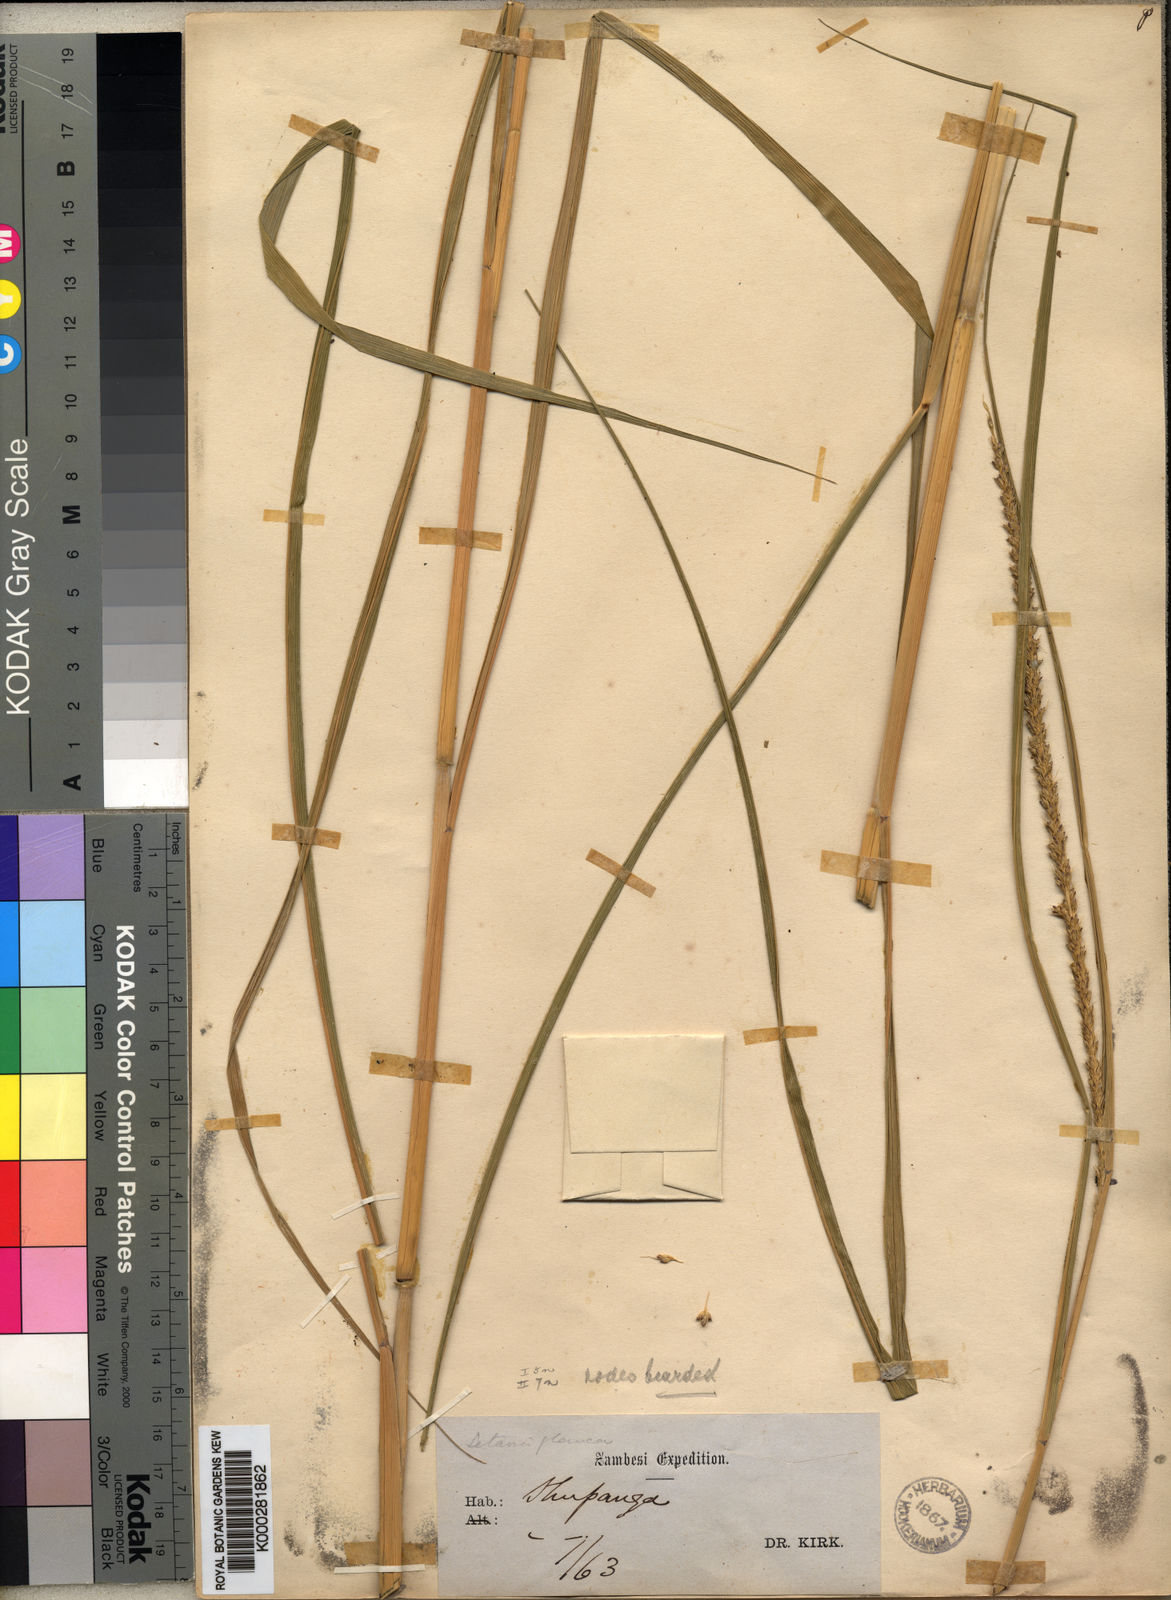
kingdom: Plantae
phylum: Tracheophyta
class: Liliopsida
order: Poales
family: Poaceae
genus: Setaria
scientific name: Setaria incrassata
